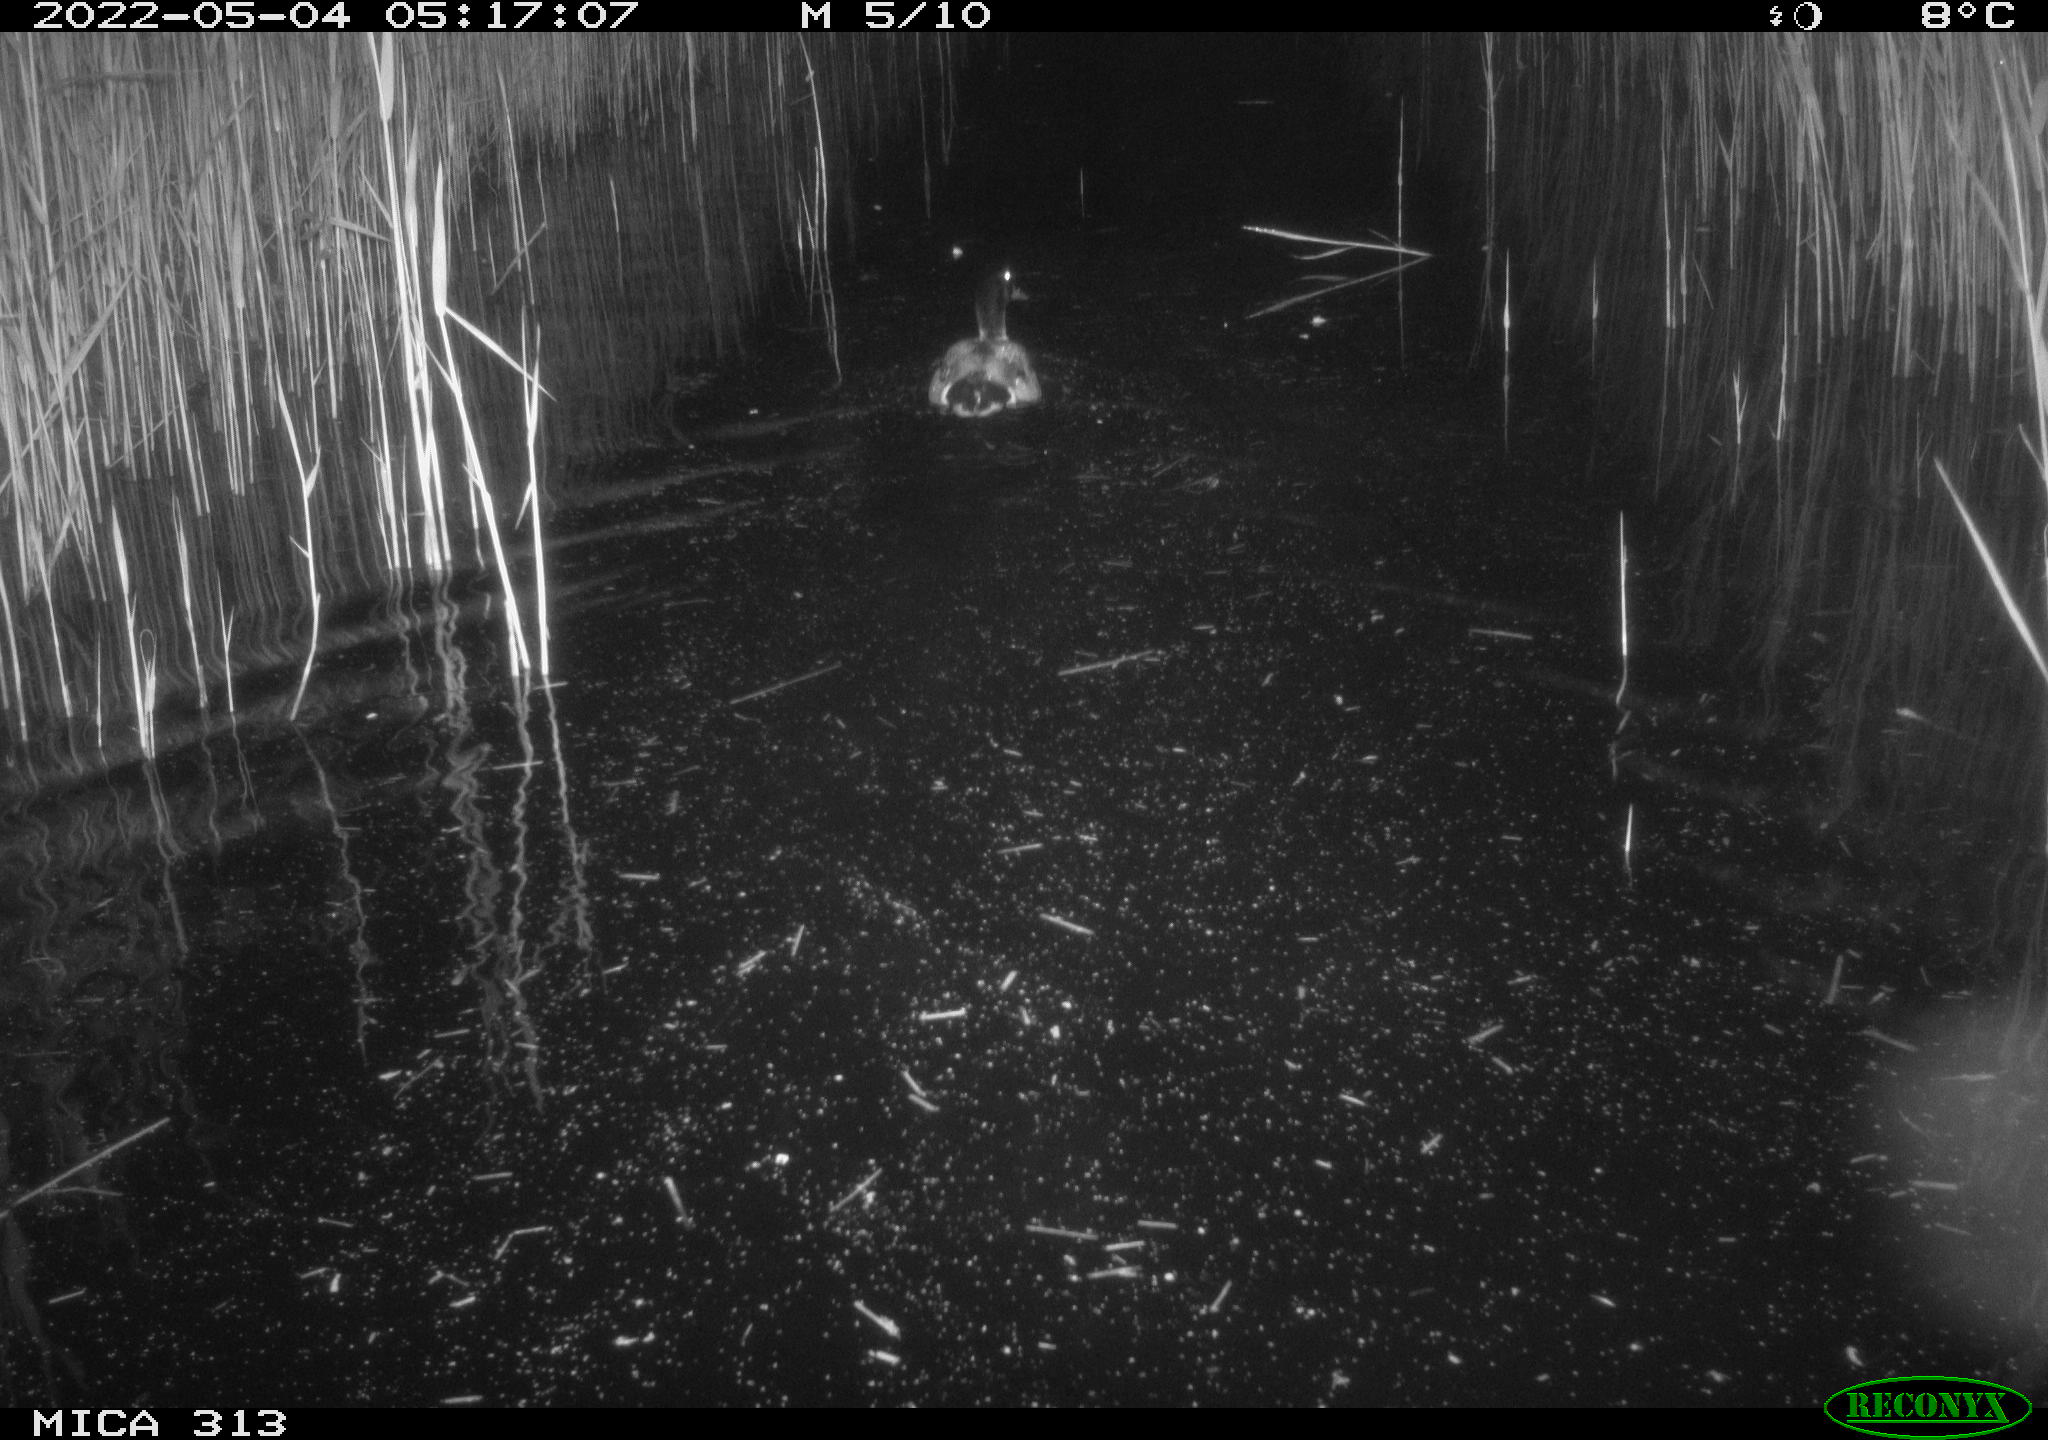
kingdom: Animalia
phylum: Chordata
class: Aves
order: Anseriformes
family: Anatidae
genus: Anas
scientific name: Anas platyrhynchos
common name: Mallard
